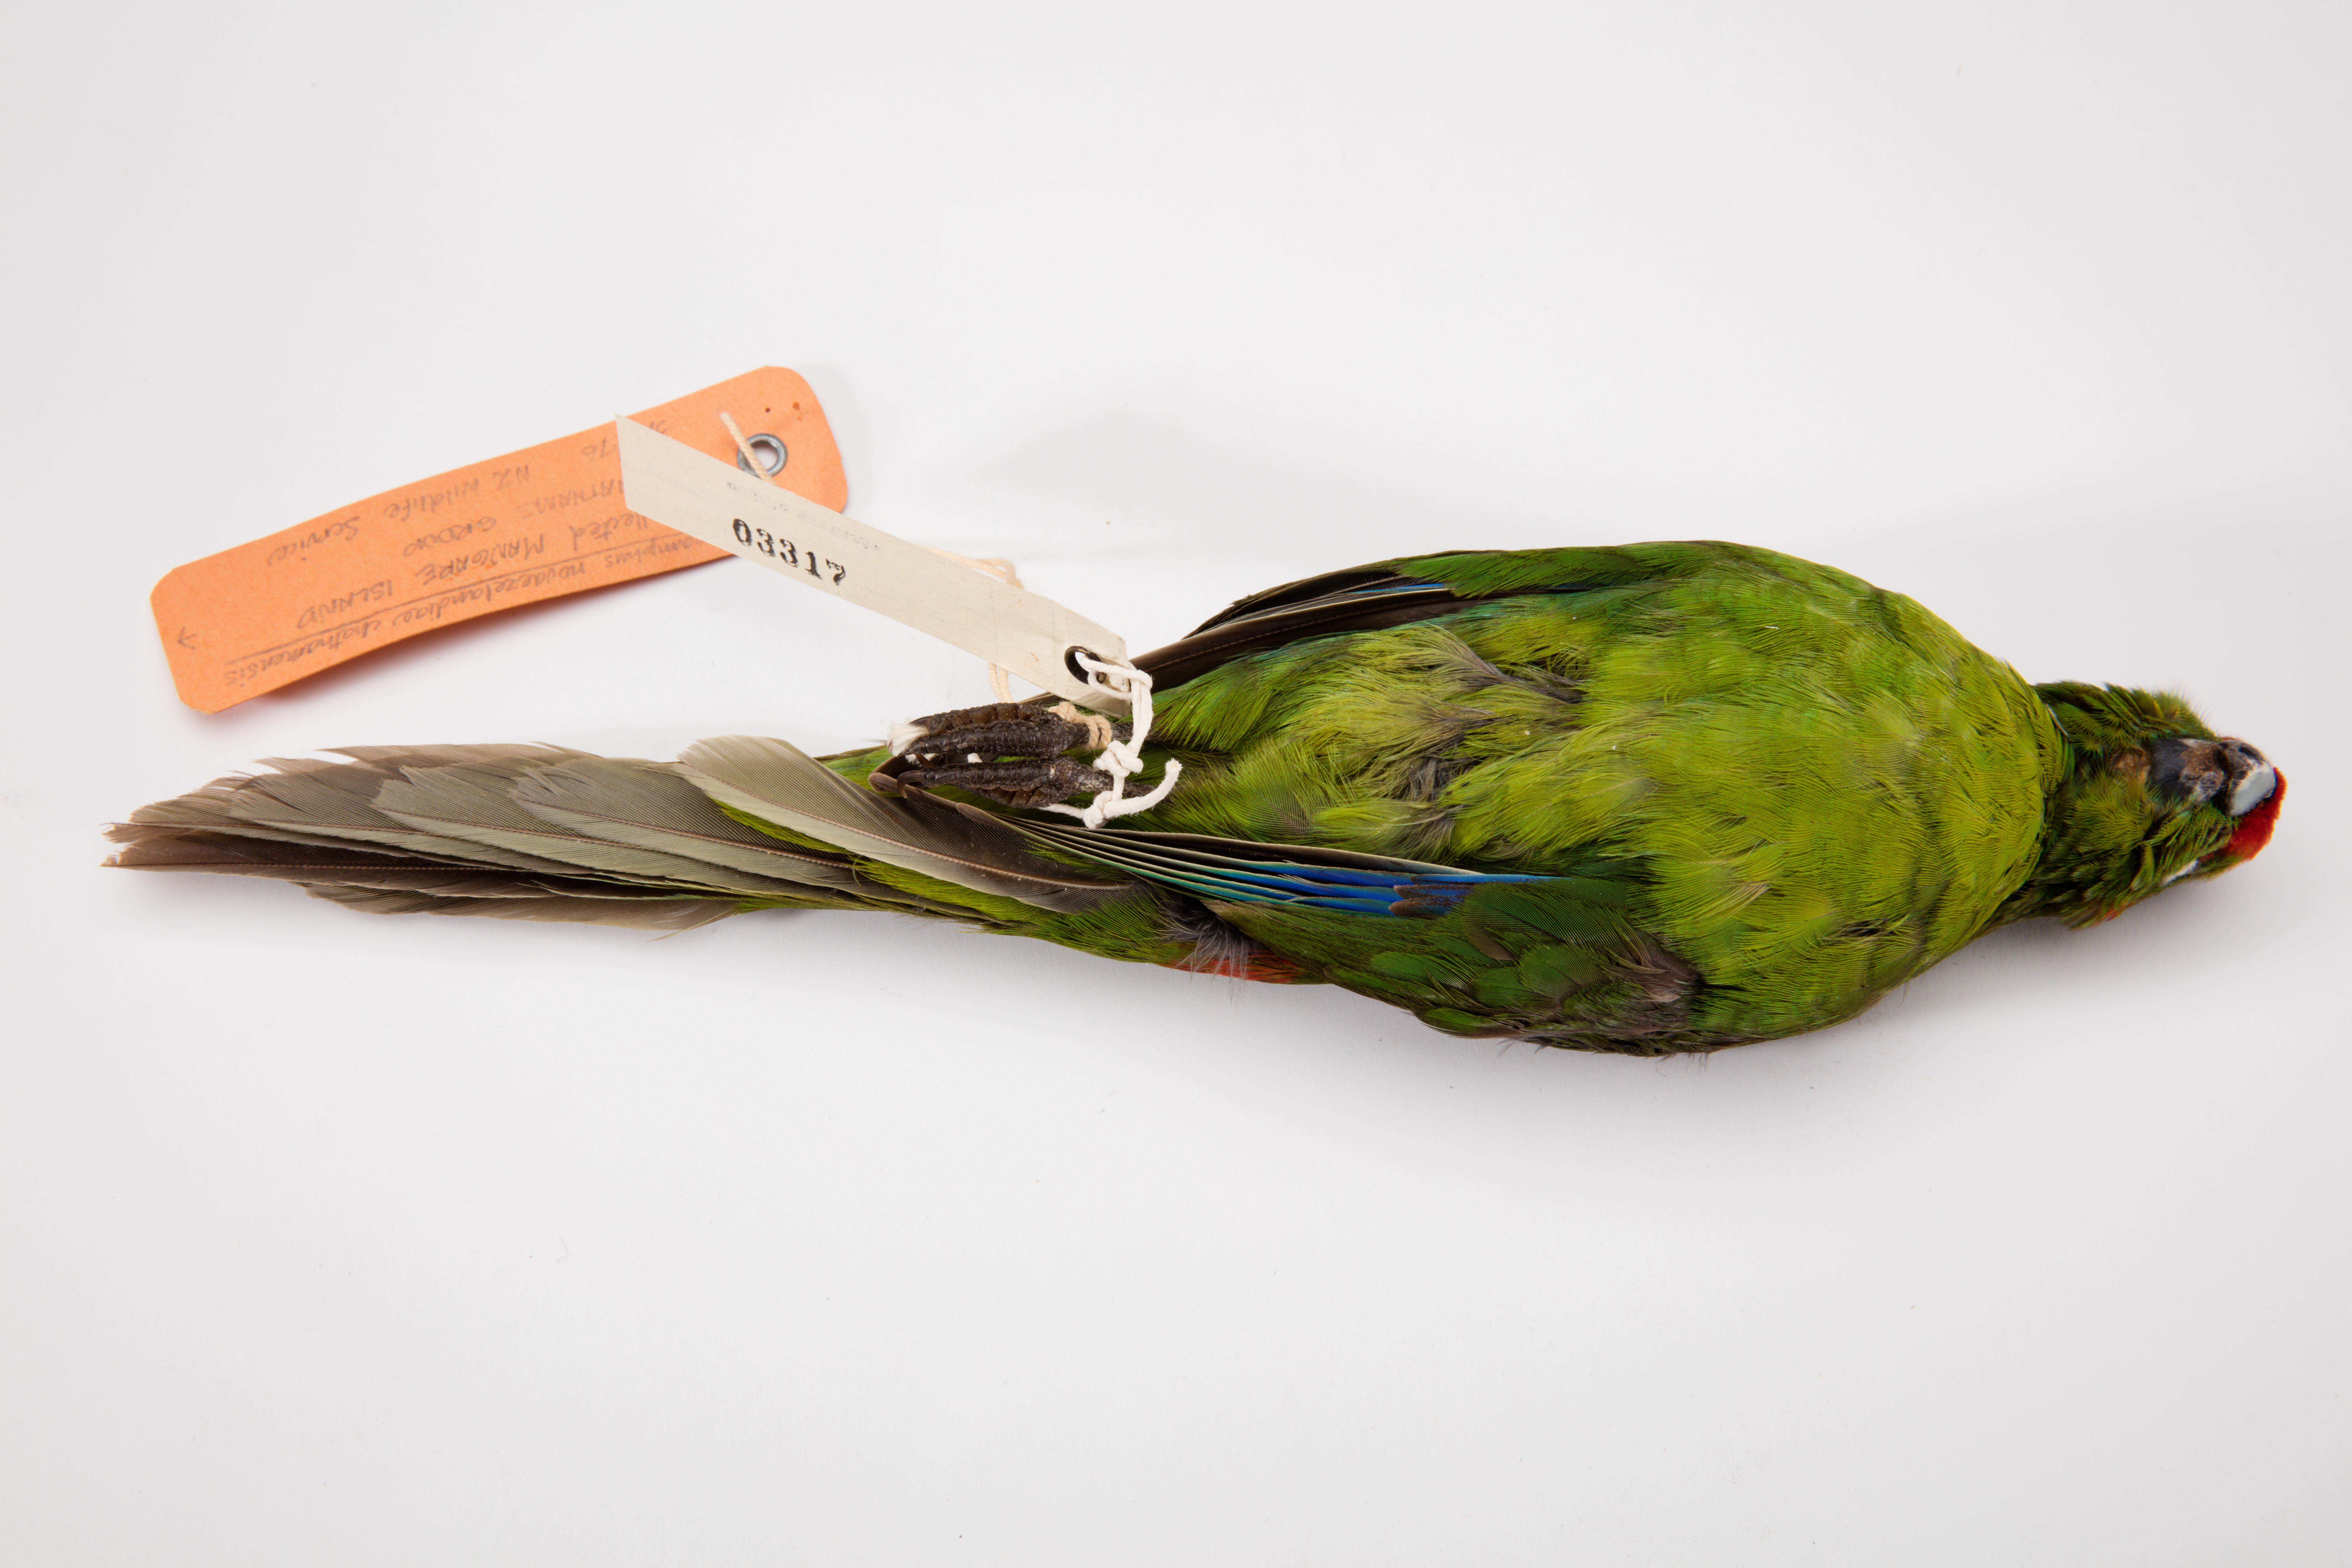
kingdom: Animalia
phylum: Chordata
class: Aves
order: Psittaciformes
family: Psittacidae
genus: Cyanoramphus
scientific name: Cyanoramphus novaezelandiae
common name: Red-fronted parakeet
